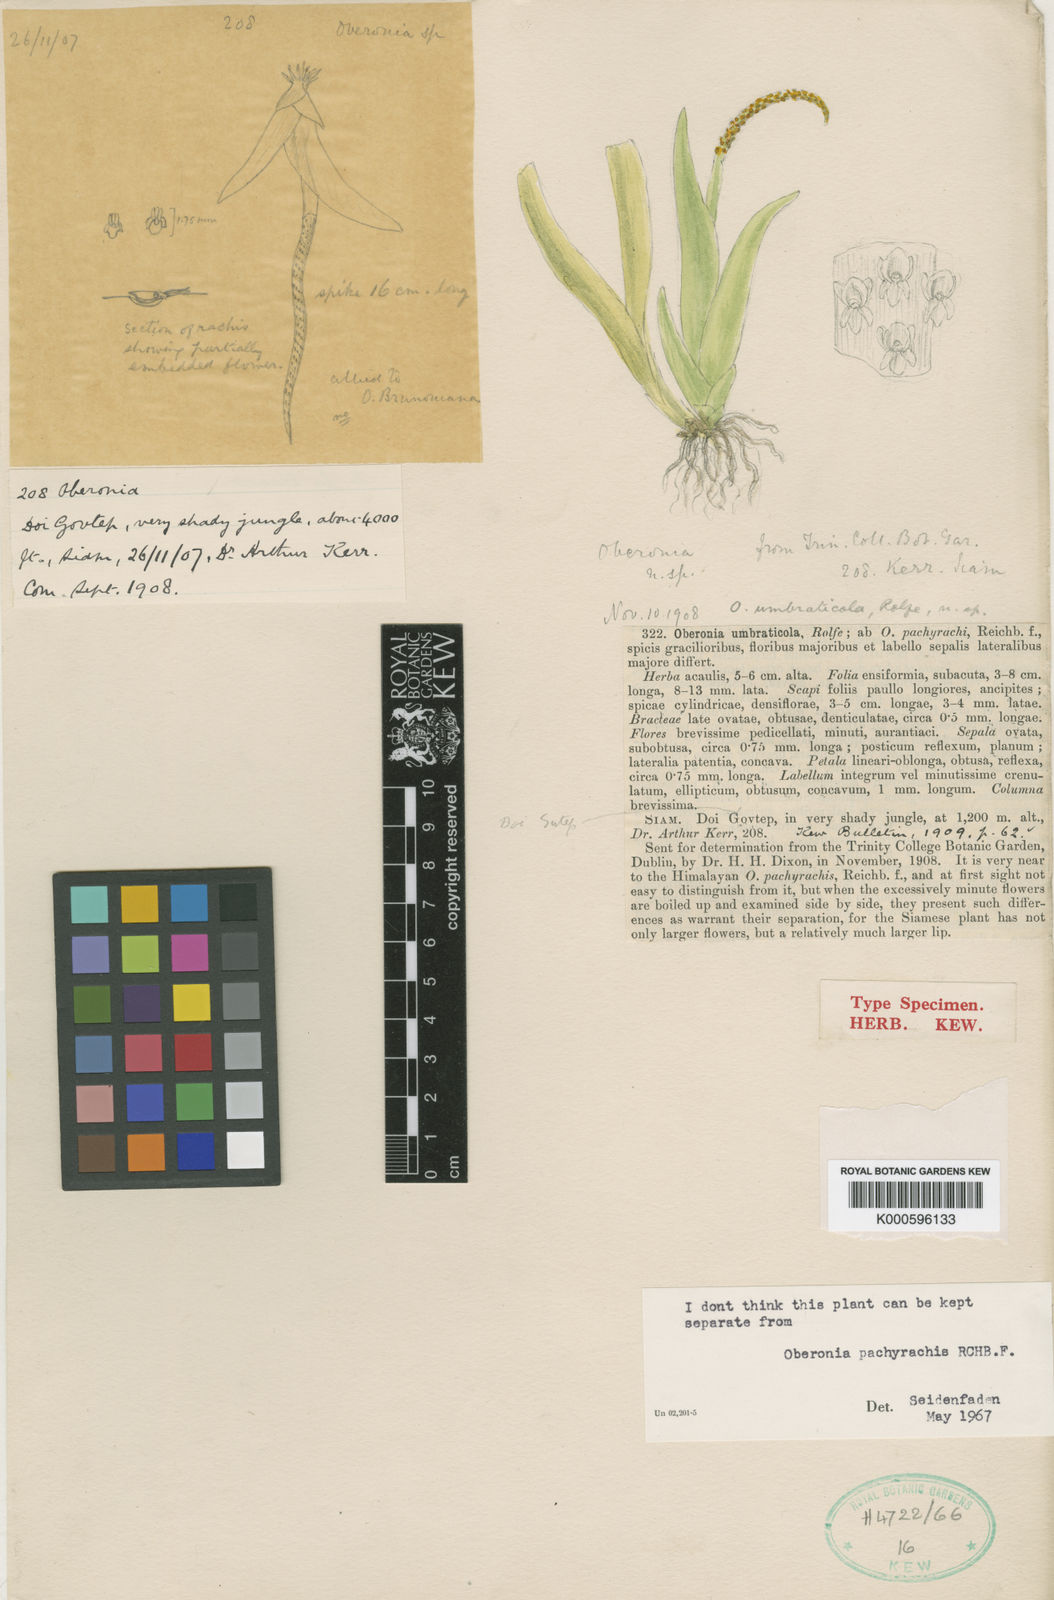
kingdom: Plantae
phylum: Tracheophyta
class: Liliopsida
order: Asparagales
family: Orchidaceae
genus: Oberonia
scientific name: Oberonia
